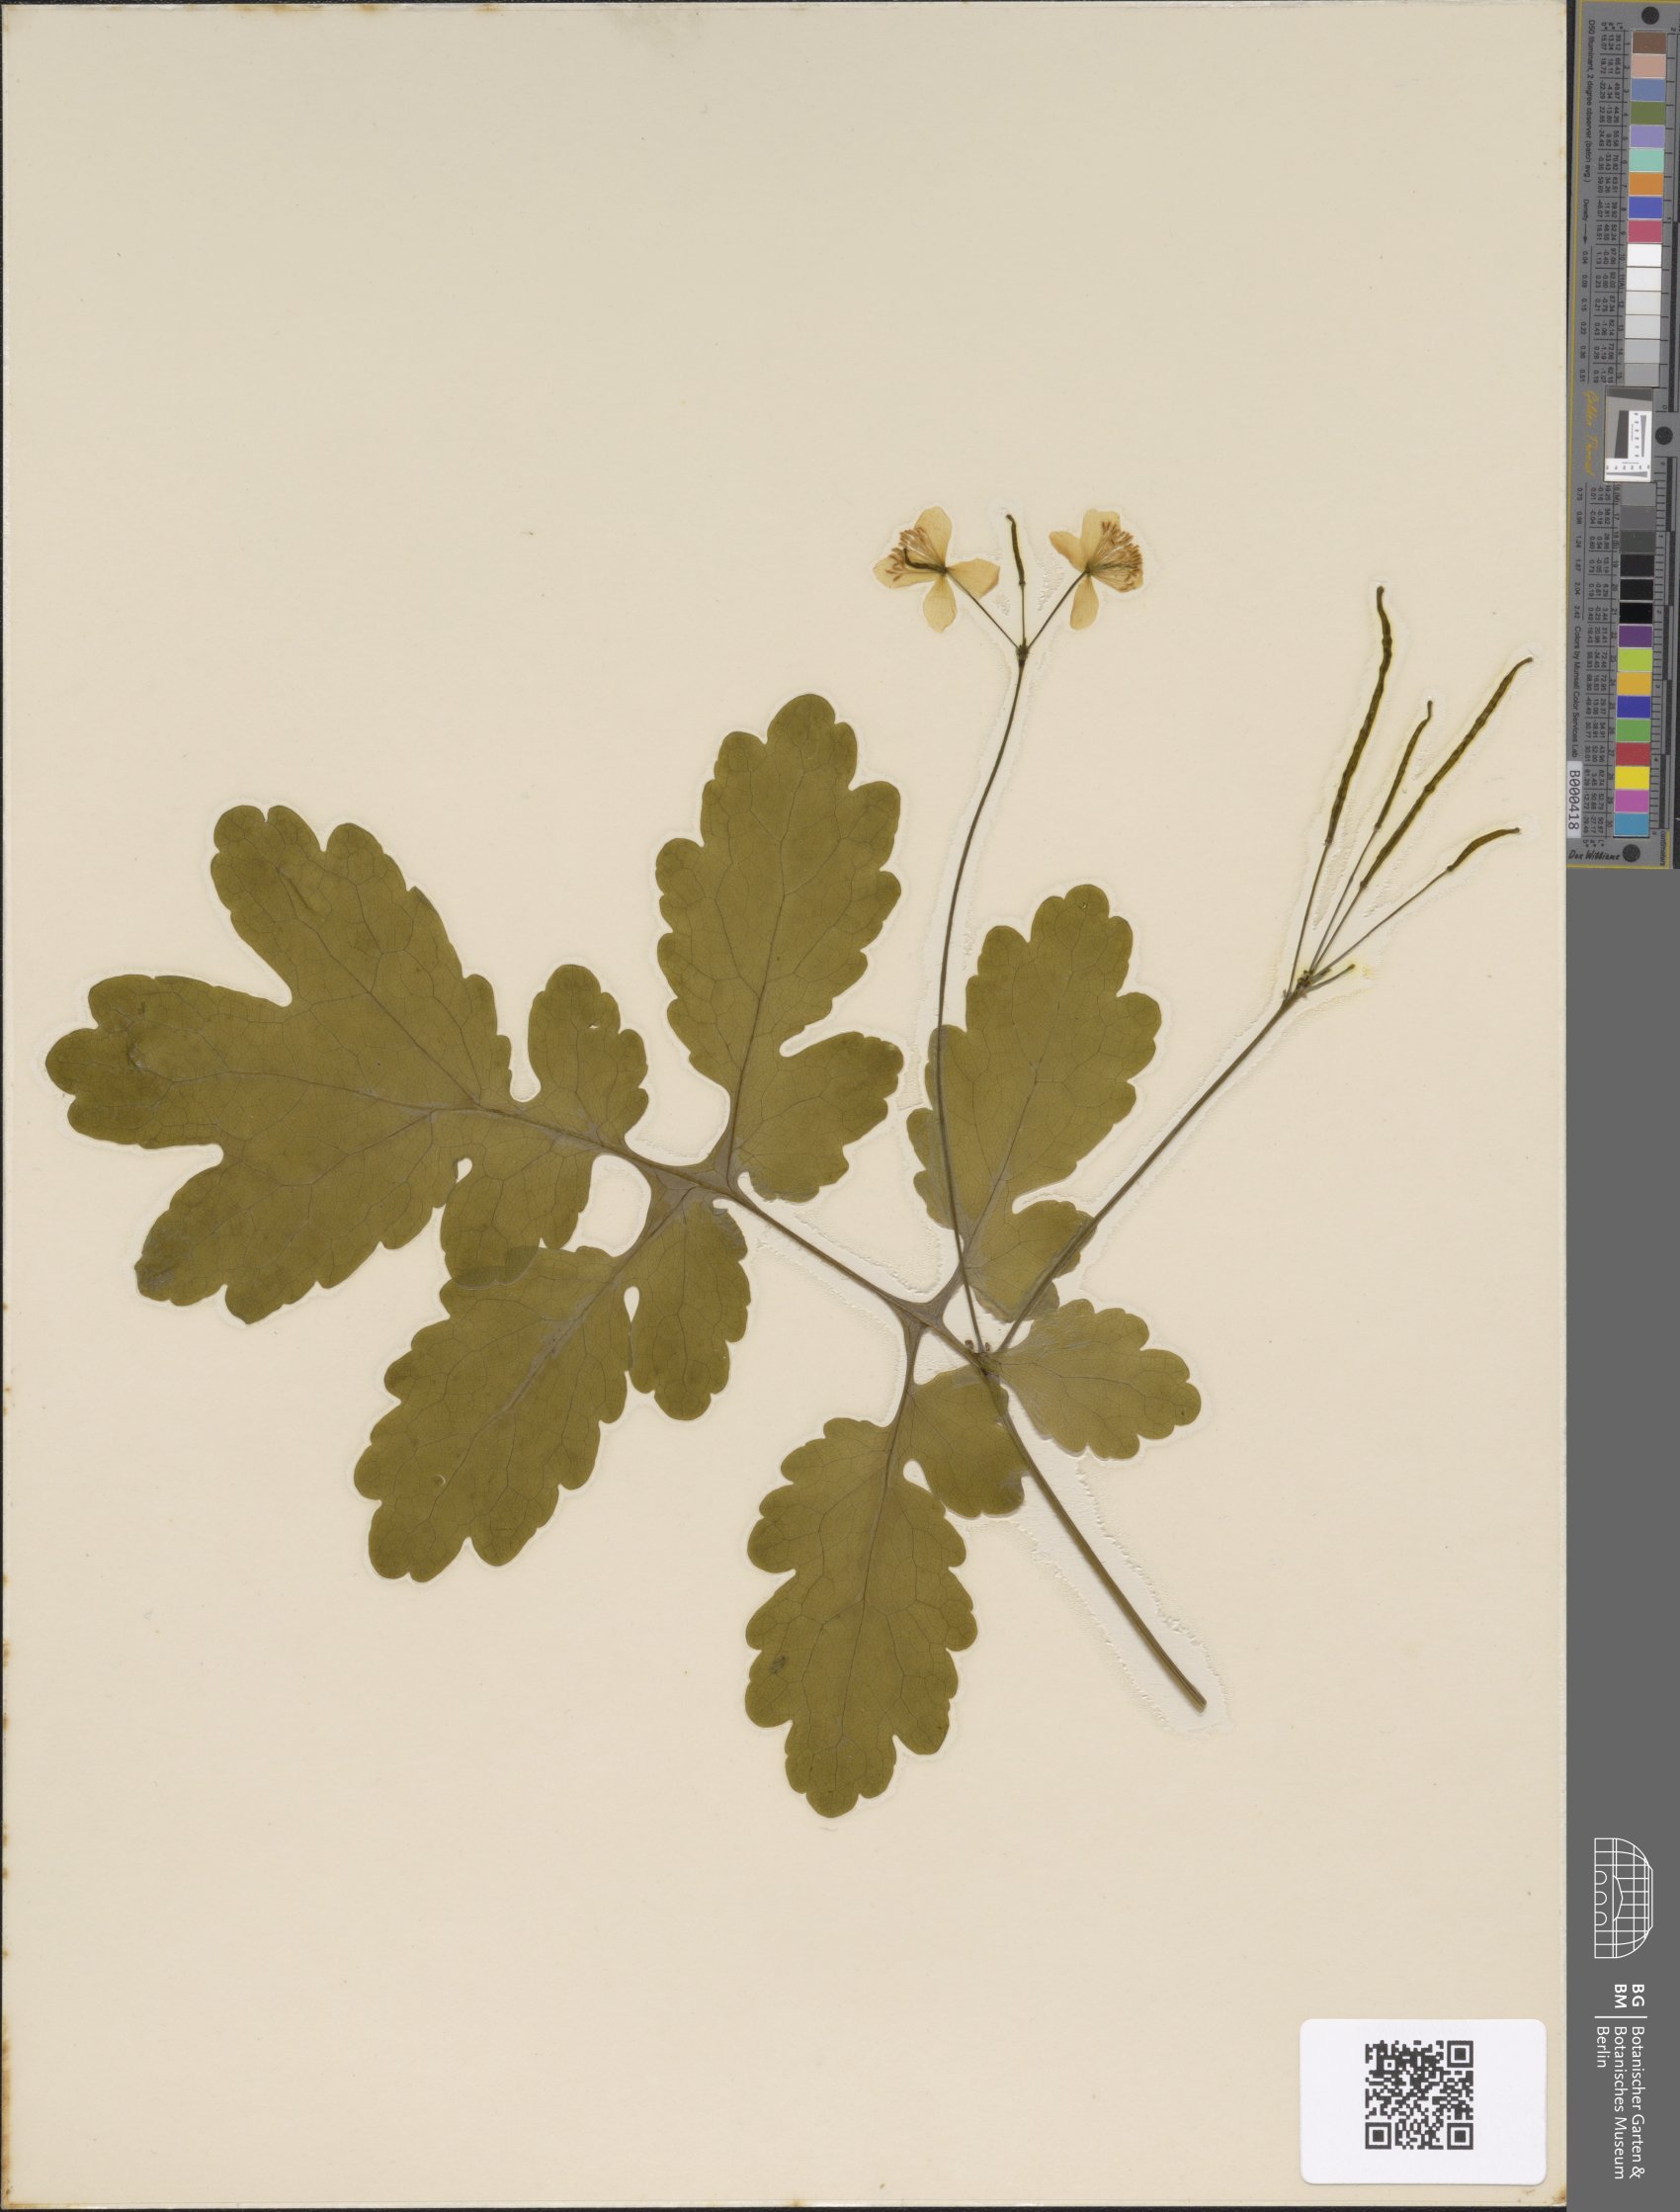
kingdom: Plantae
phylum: Tracheophyta
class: Magnoliopsida
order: Ranunculales
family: Papaveraceae
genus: Chelidonium
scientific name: Chelidonium majus
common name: Greater celandine
